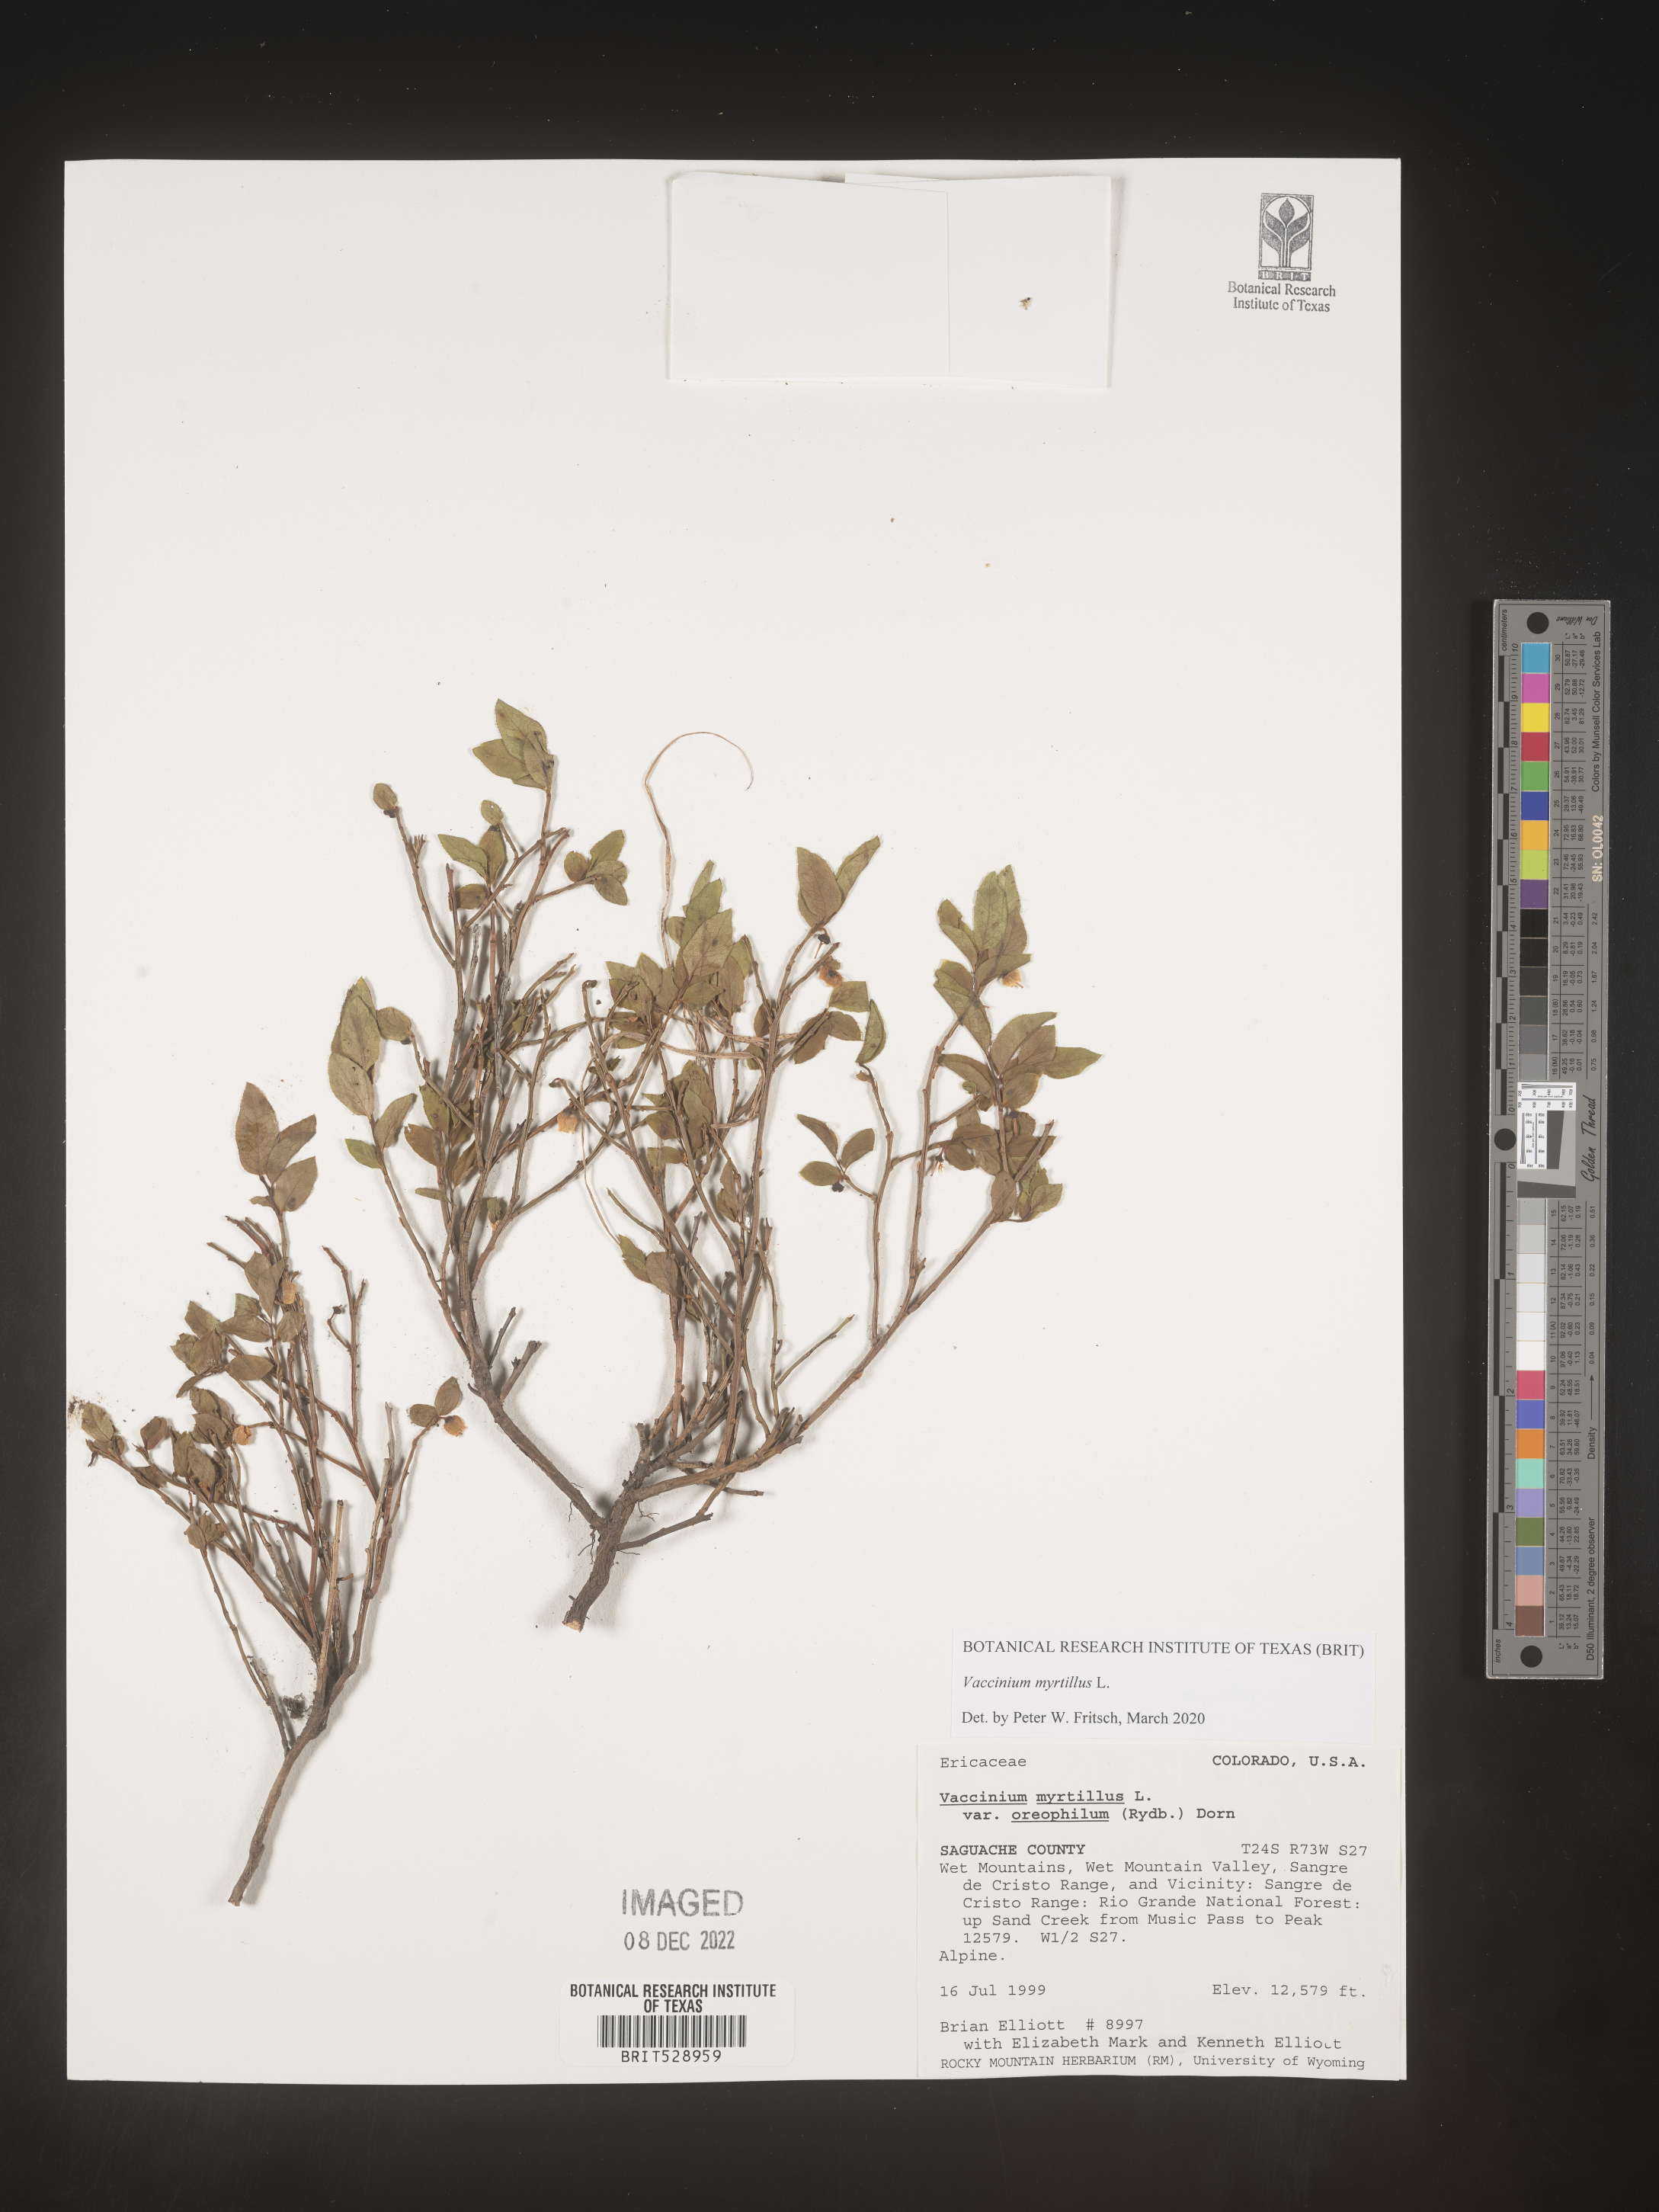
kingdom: Plantae
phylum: Tracheophyta
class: Magnoliopsida
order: Ericales
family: Ericaceae
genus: Vaccinium
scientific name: Vaccinium myrtillus
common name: Bilberry
